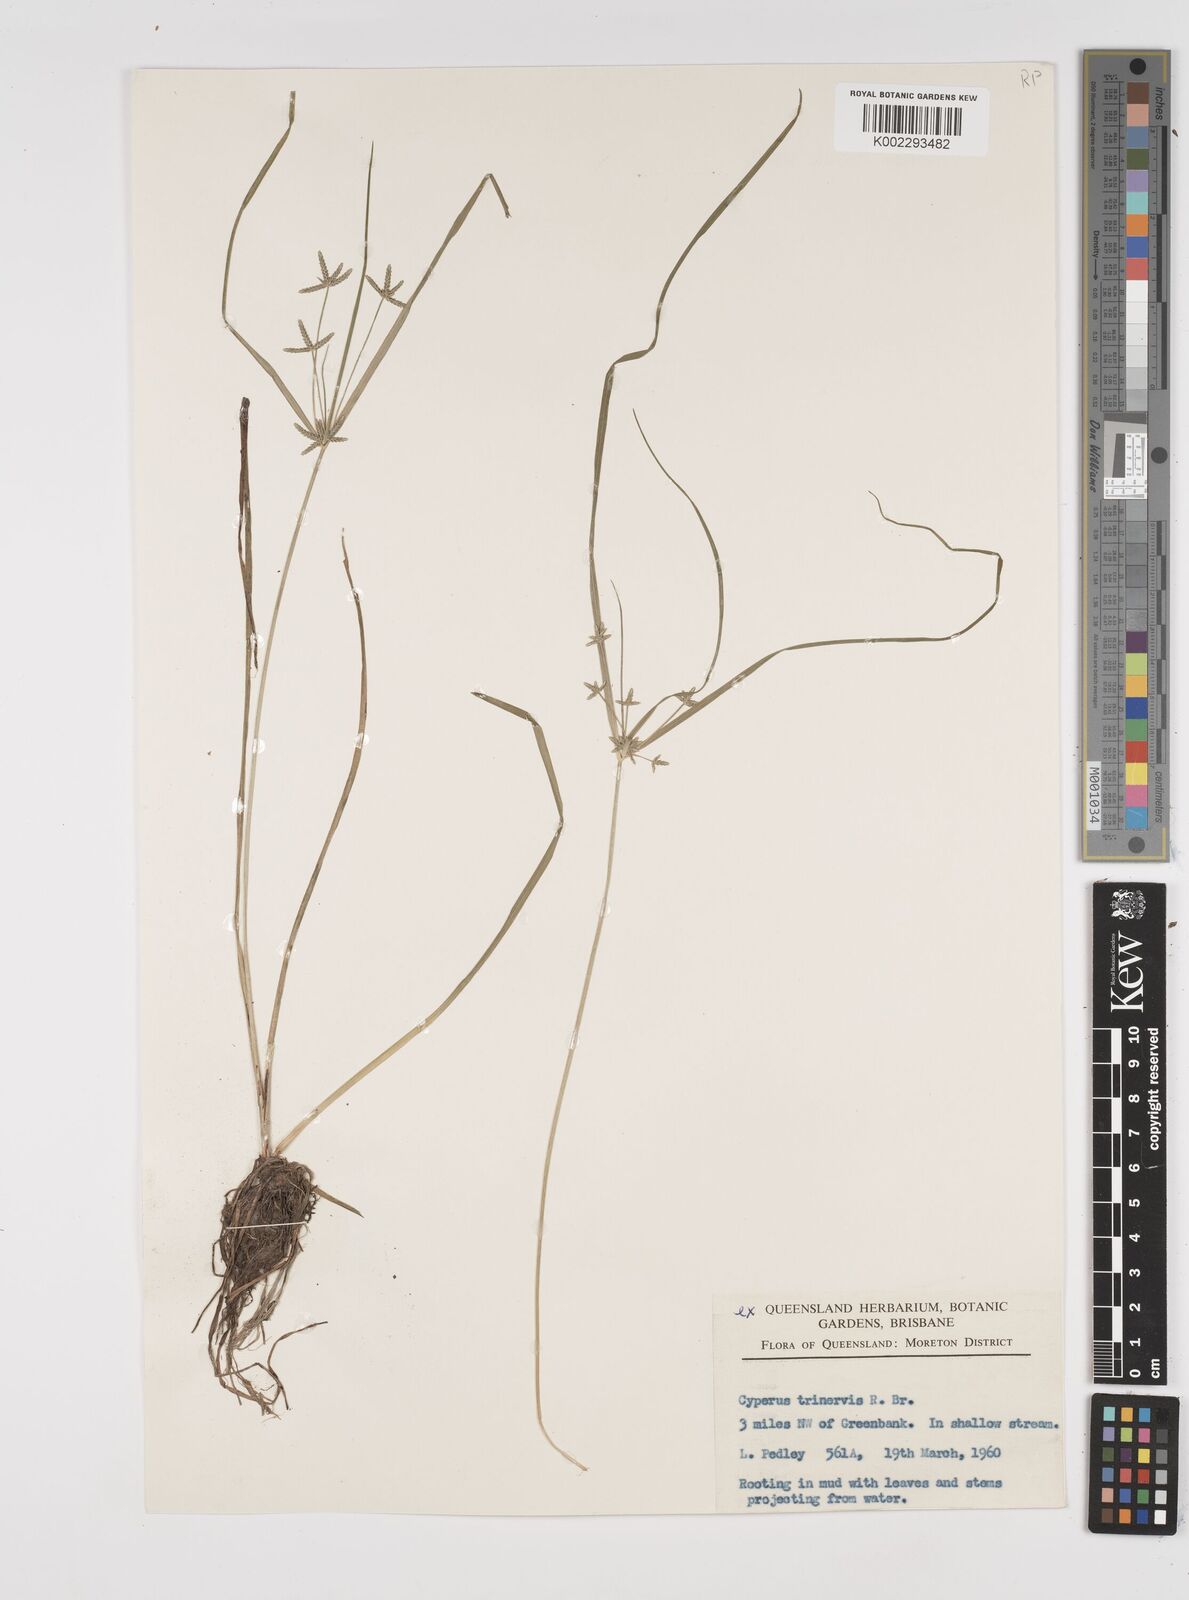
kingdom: Plantae
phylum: Tracheophyta
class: Liliopsida
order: Poales
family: Cyperaceae
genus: Cyperus
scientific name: Cyperus trinervis
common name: Australian flatsedge
